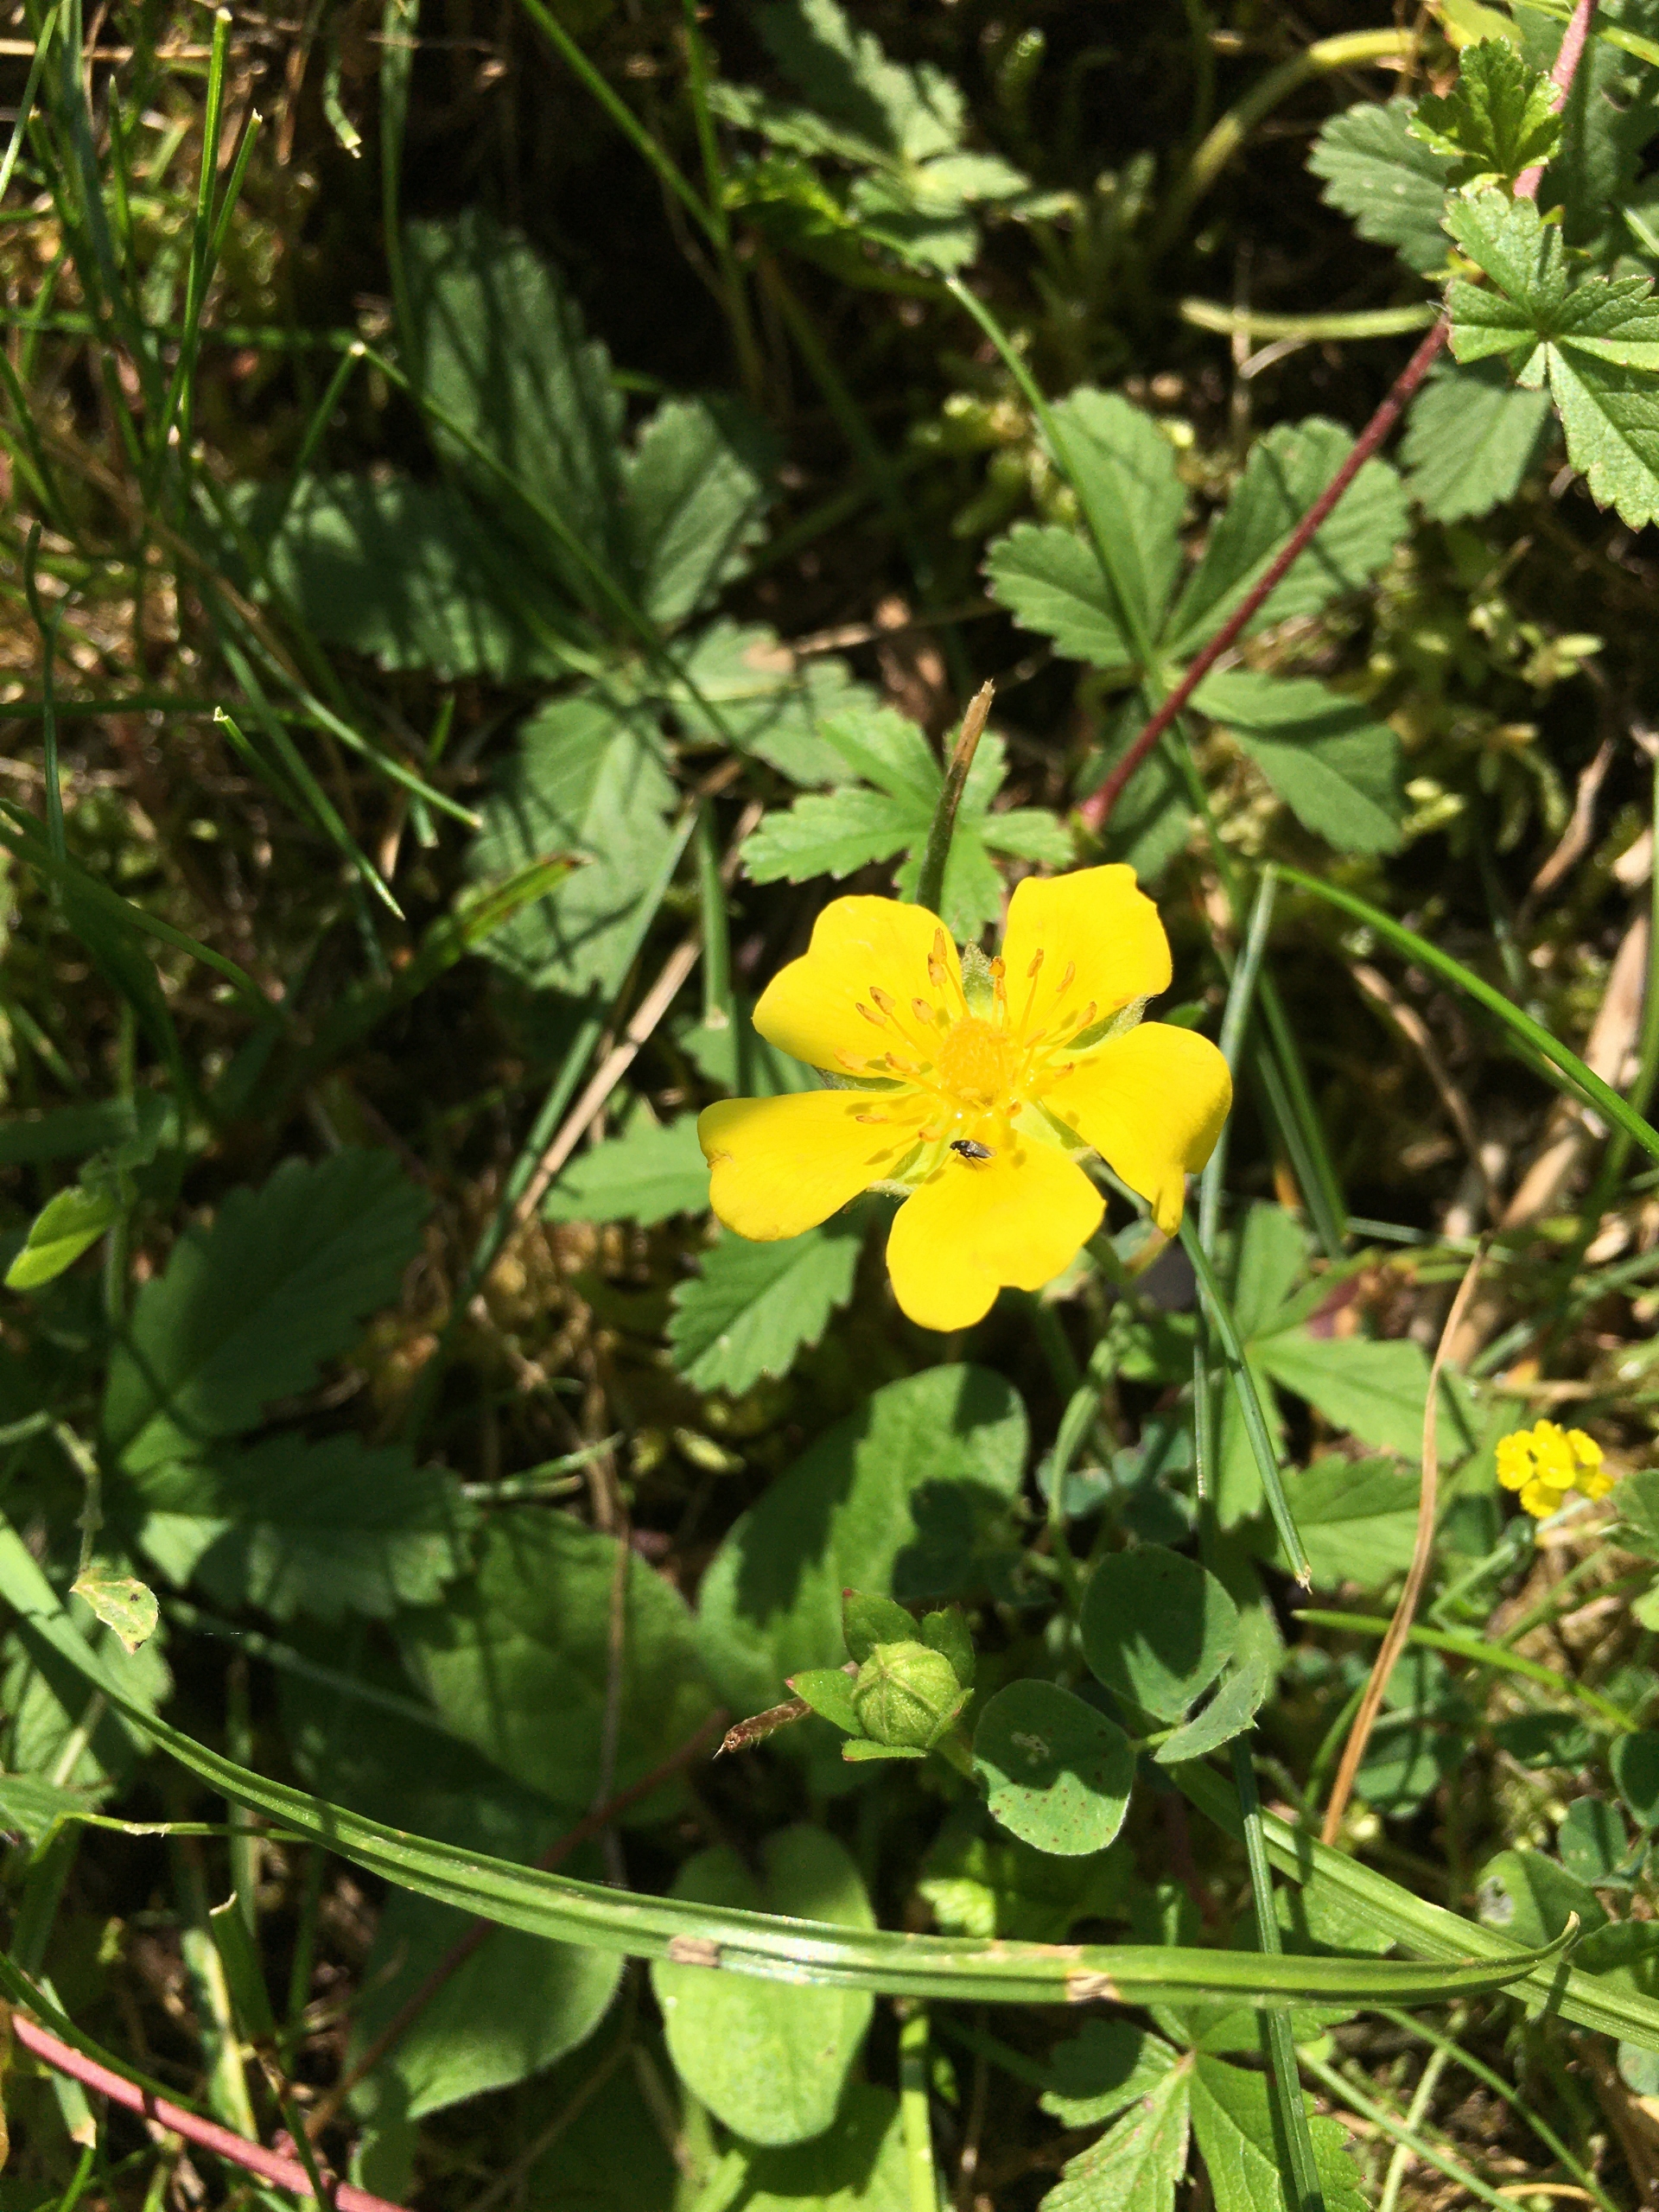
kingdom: Plantae
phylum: Tracheophyta
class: Magnoliopsida
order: Rosales
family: Rosaceae
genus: Potentilla
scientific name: Potentilla reptans
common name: Krybende potentil
